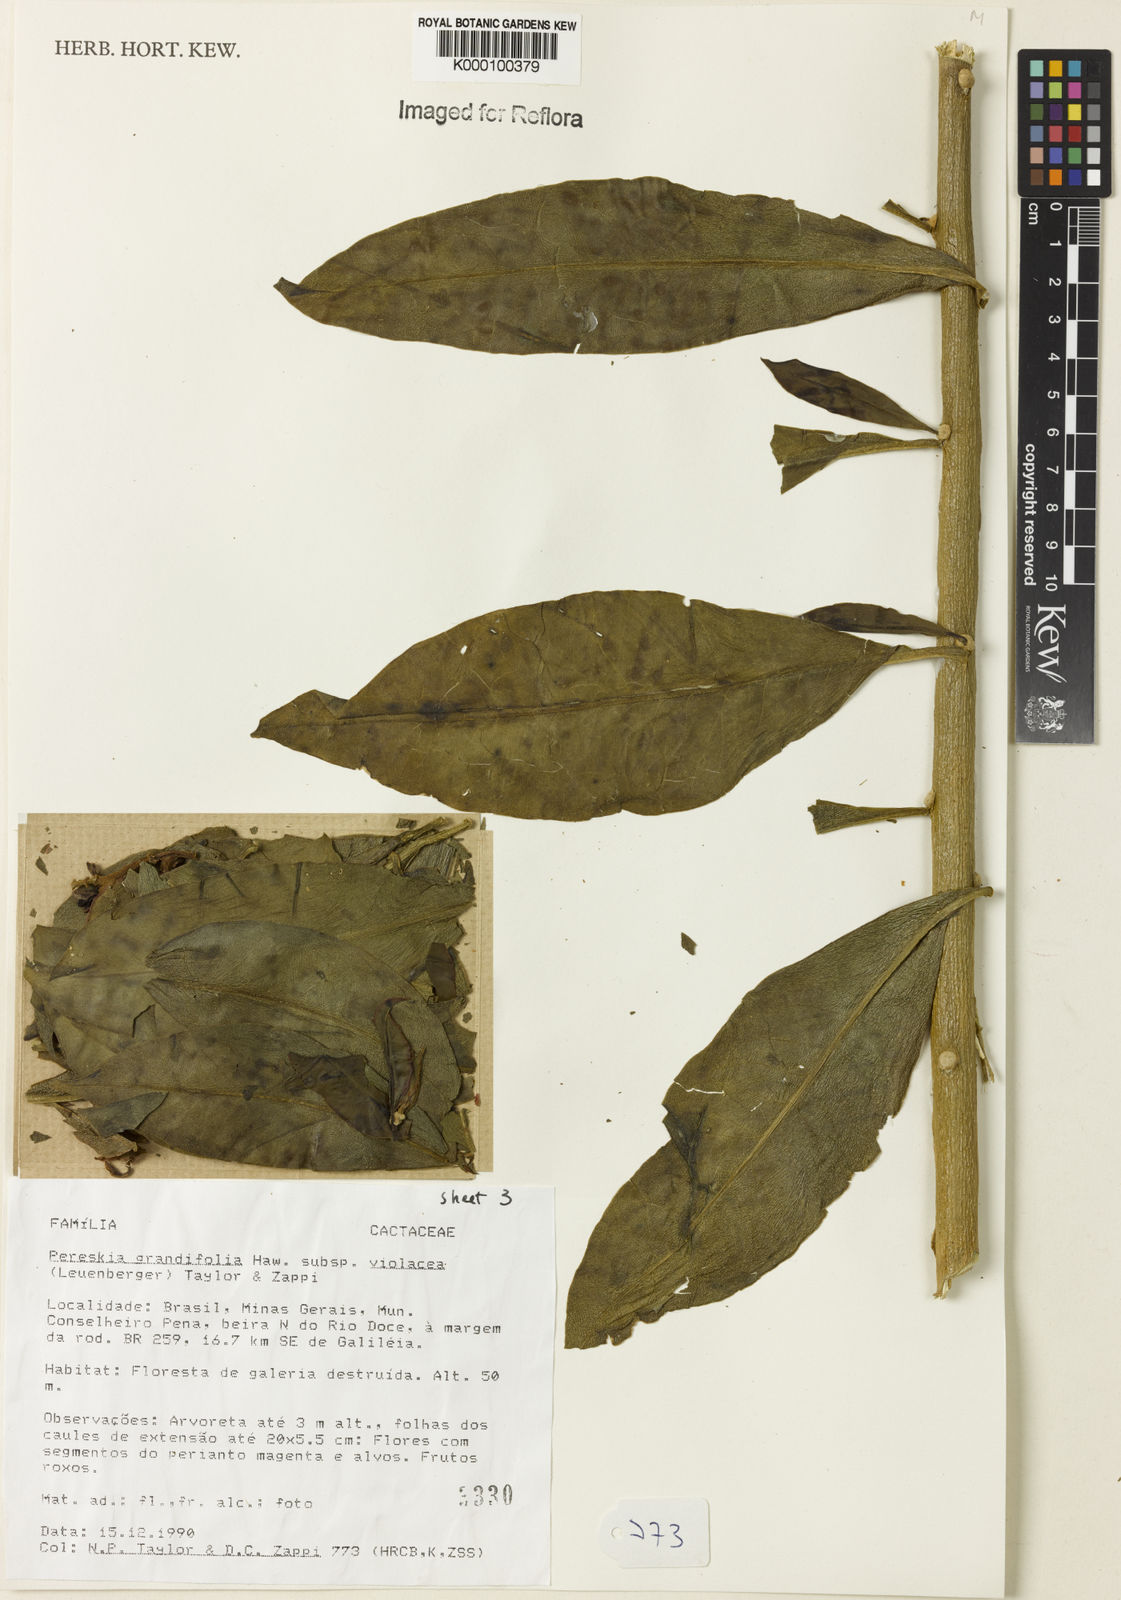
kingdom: Plantae
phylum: Tracheophyta
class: Magnoliopsida
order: Caryophyllales
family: Cactaceae
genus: Pereskia
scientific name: Pereskia grandifolia
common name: Rose cactus
